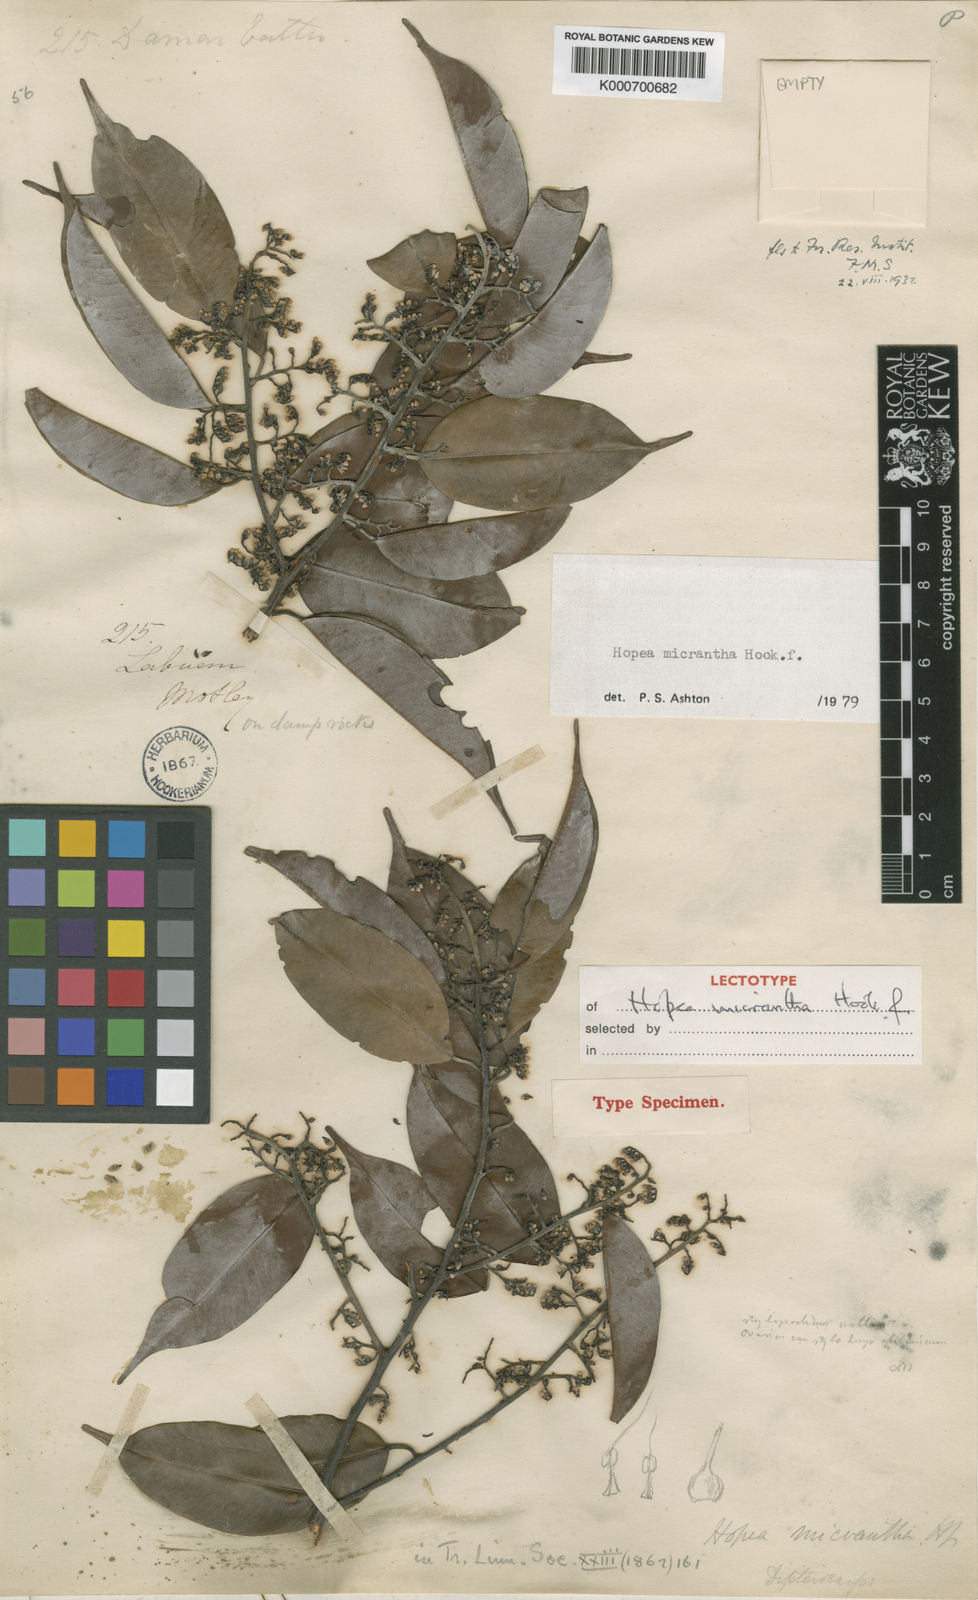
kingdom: Plantae
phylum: Tracheophyta
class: Magnoliopsida
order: Malvales
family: Dipterocarpaceae
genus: Hopea
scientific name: Hopea micrantha
